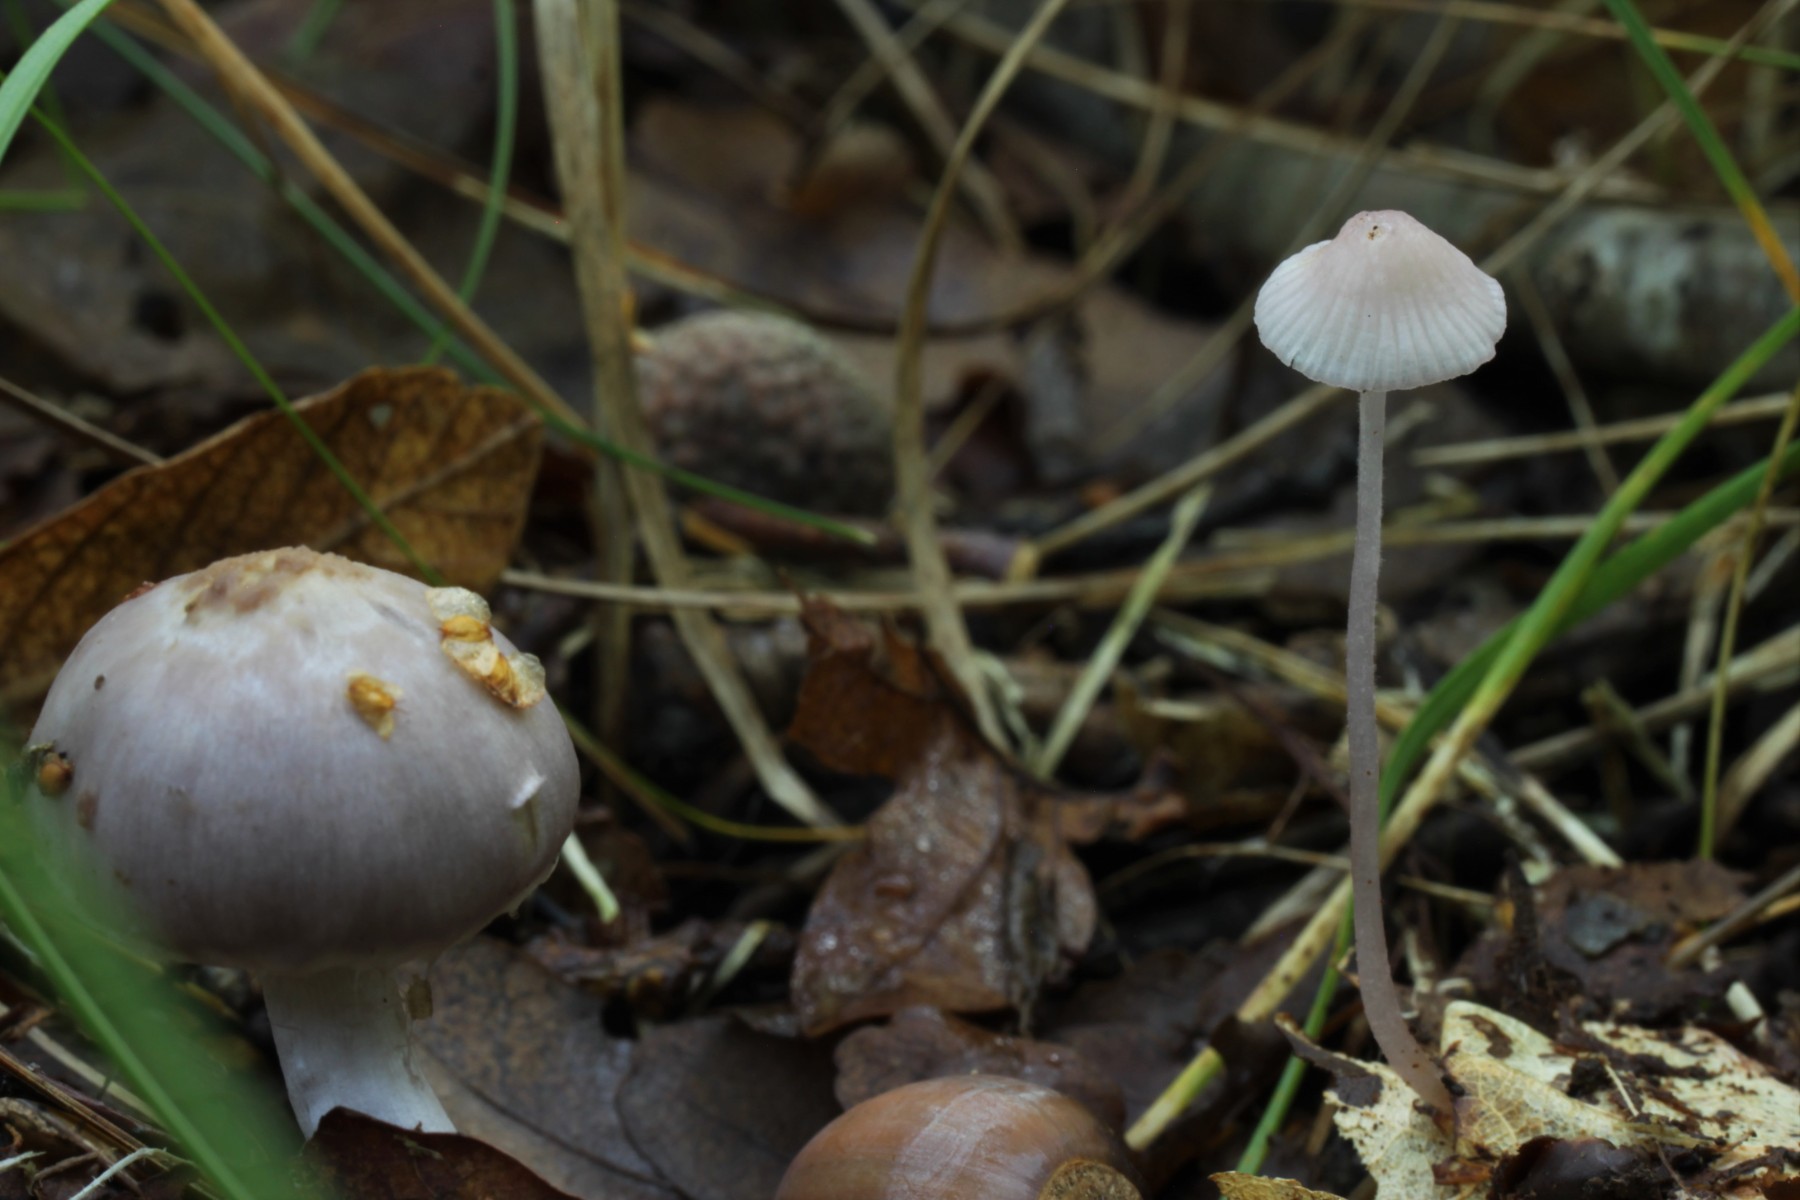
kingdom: Fungi
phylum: Basidiomycota
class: Agaricomycetes
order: Agaricales
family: Mycenaceae
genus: Mycena
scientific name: Mycena albidolilacea
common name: lyslilla huesvamp
